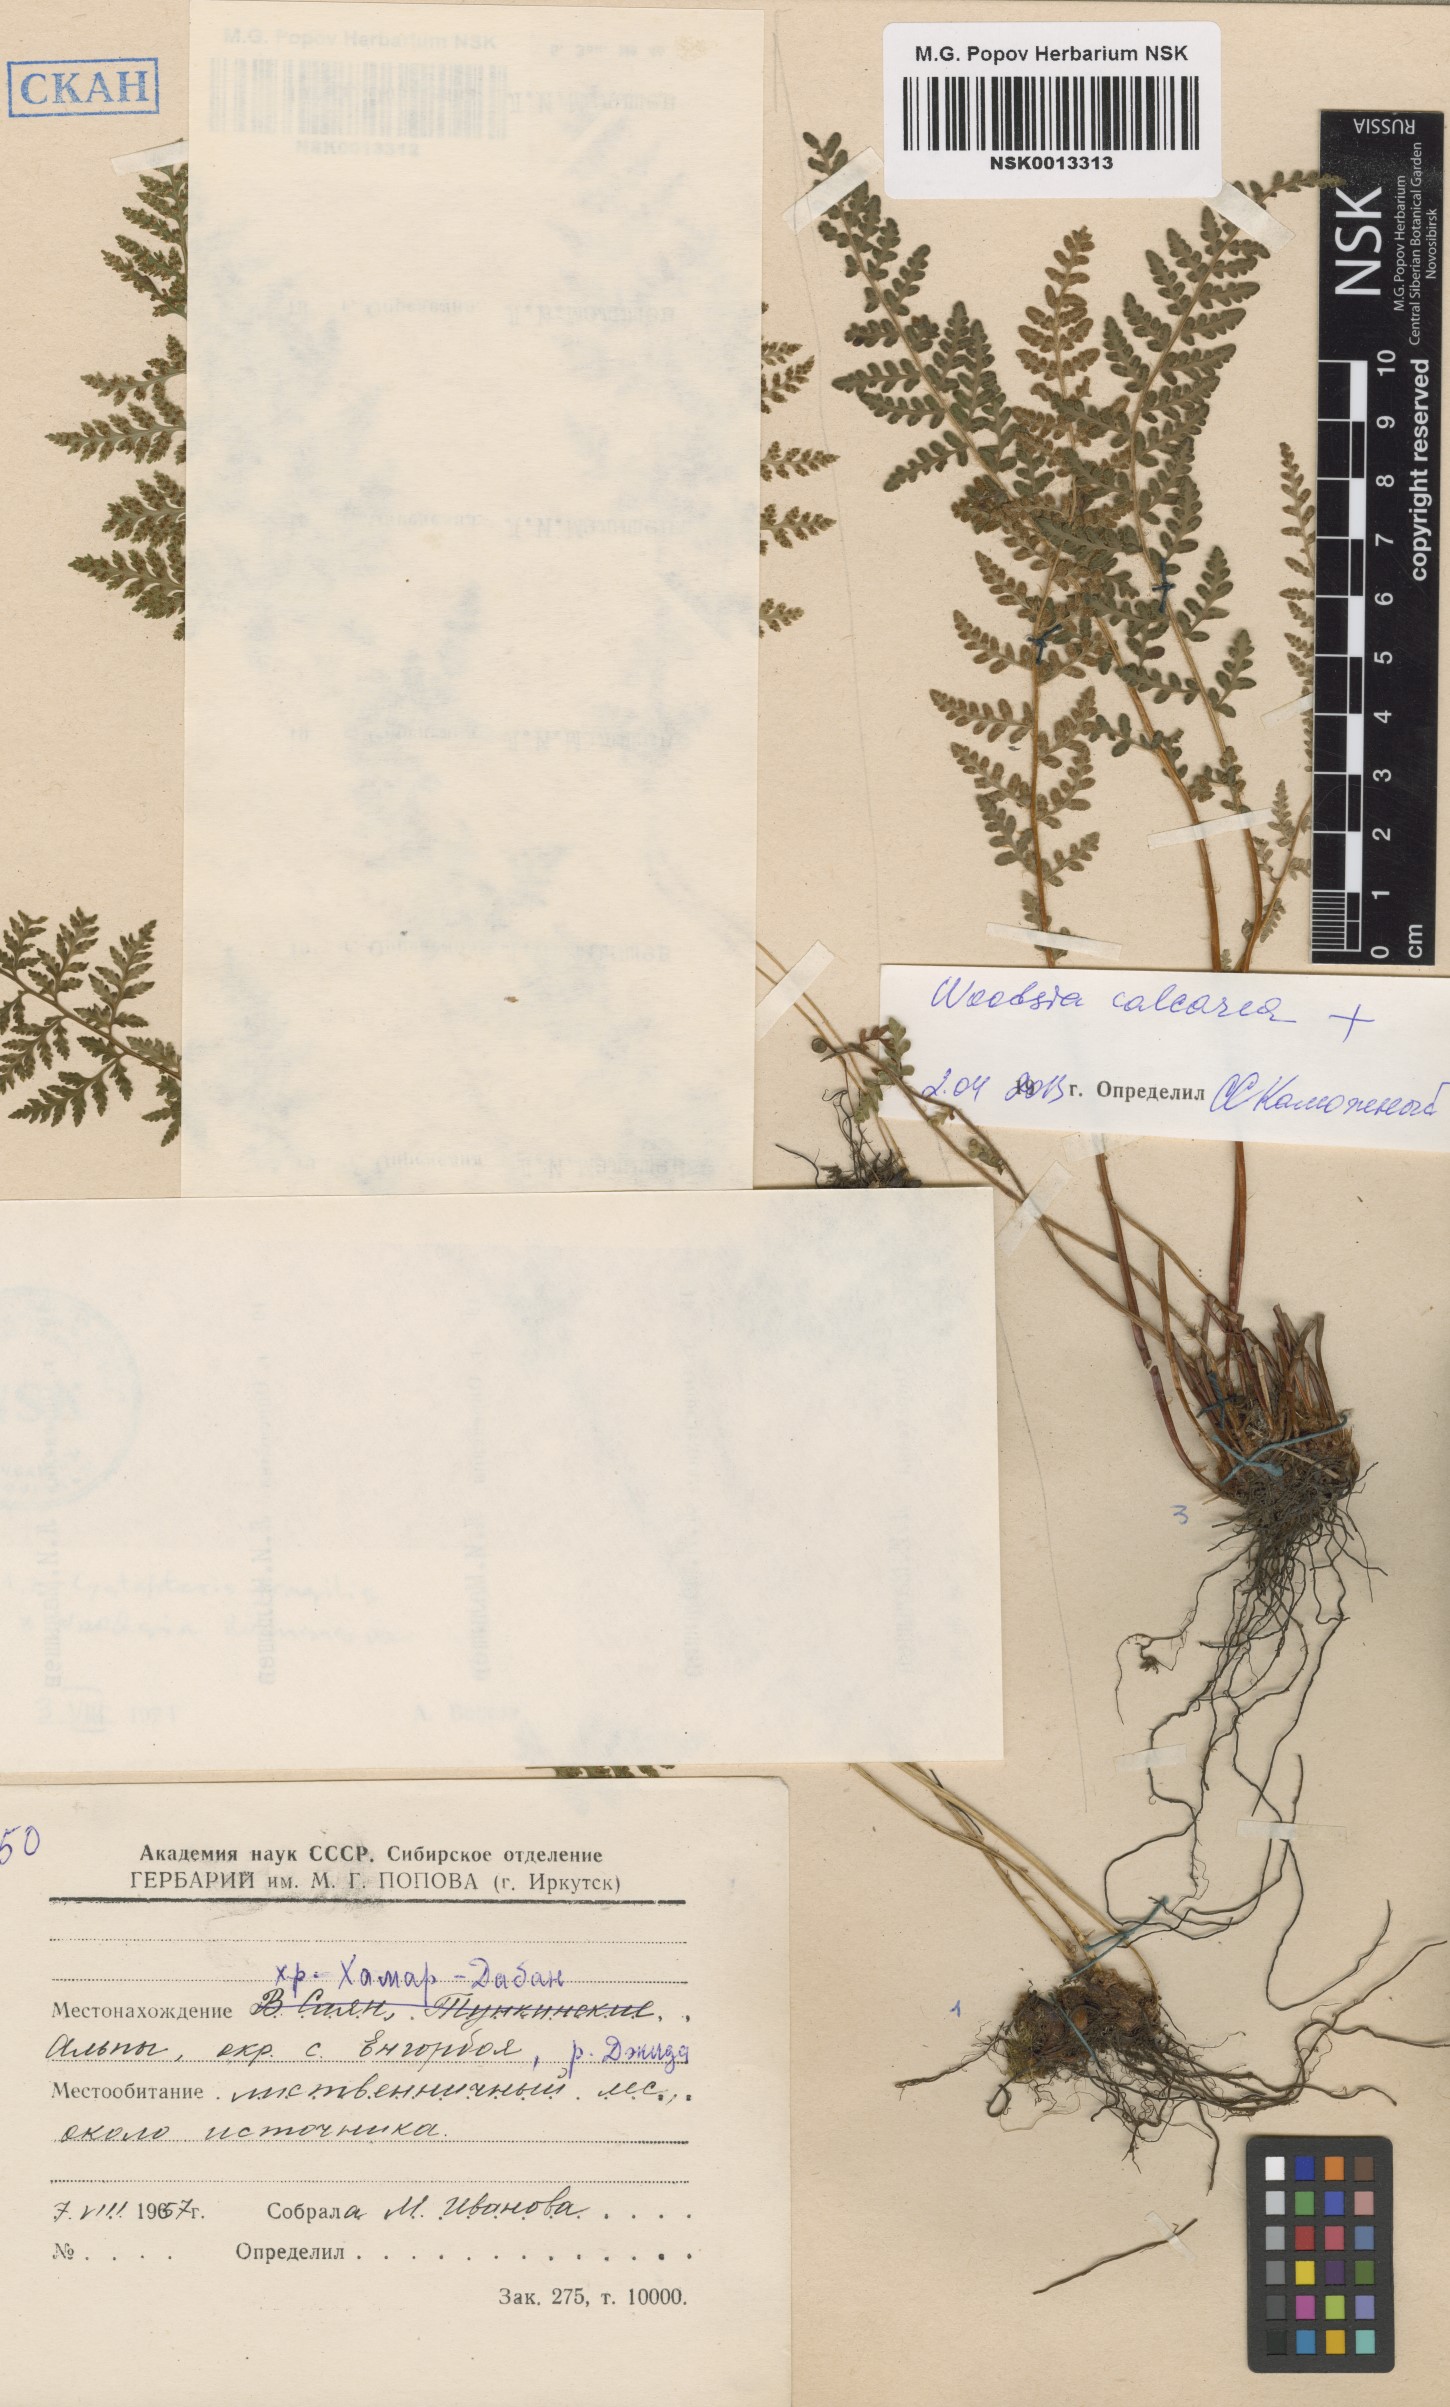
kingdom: Plantae
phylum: Tracheophyta
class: Polypodiopsida
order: Polypodiales
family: Woodsiaceae
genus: Woodsia
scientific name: Woodsia calcarea
